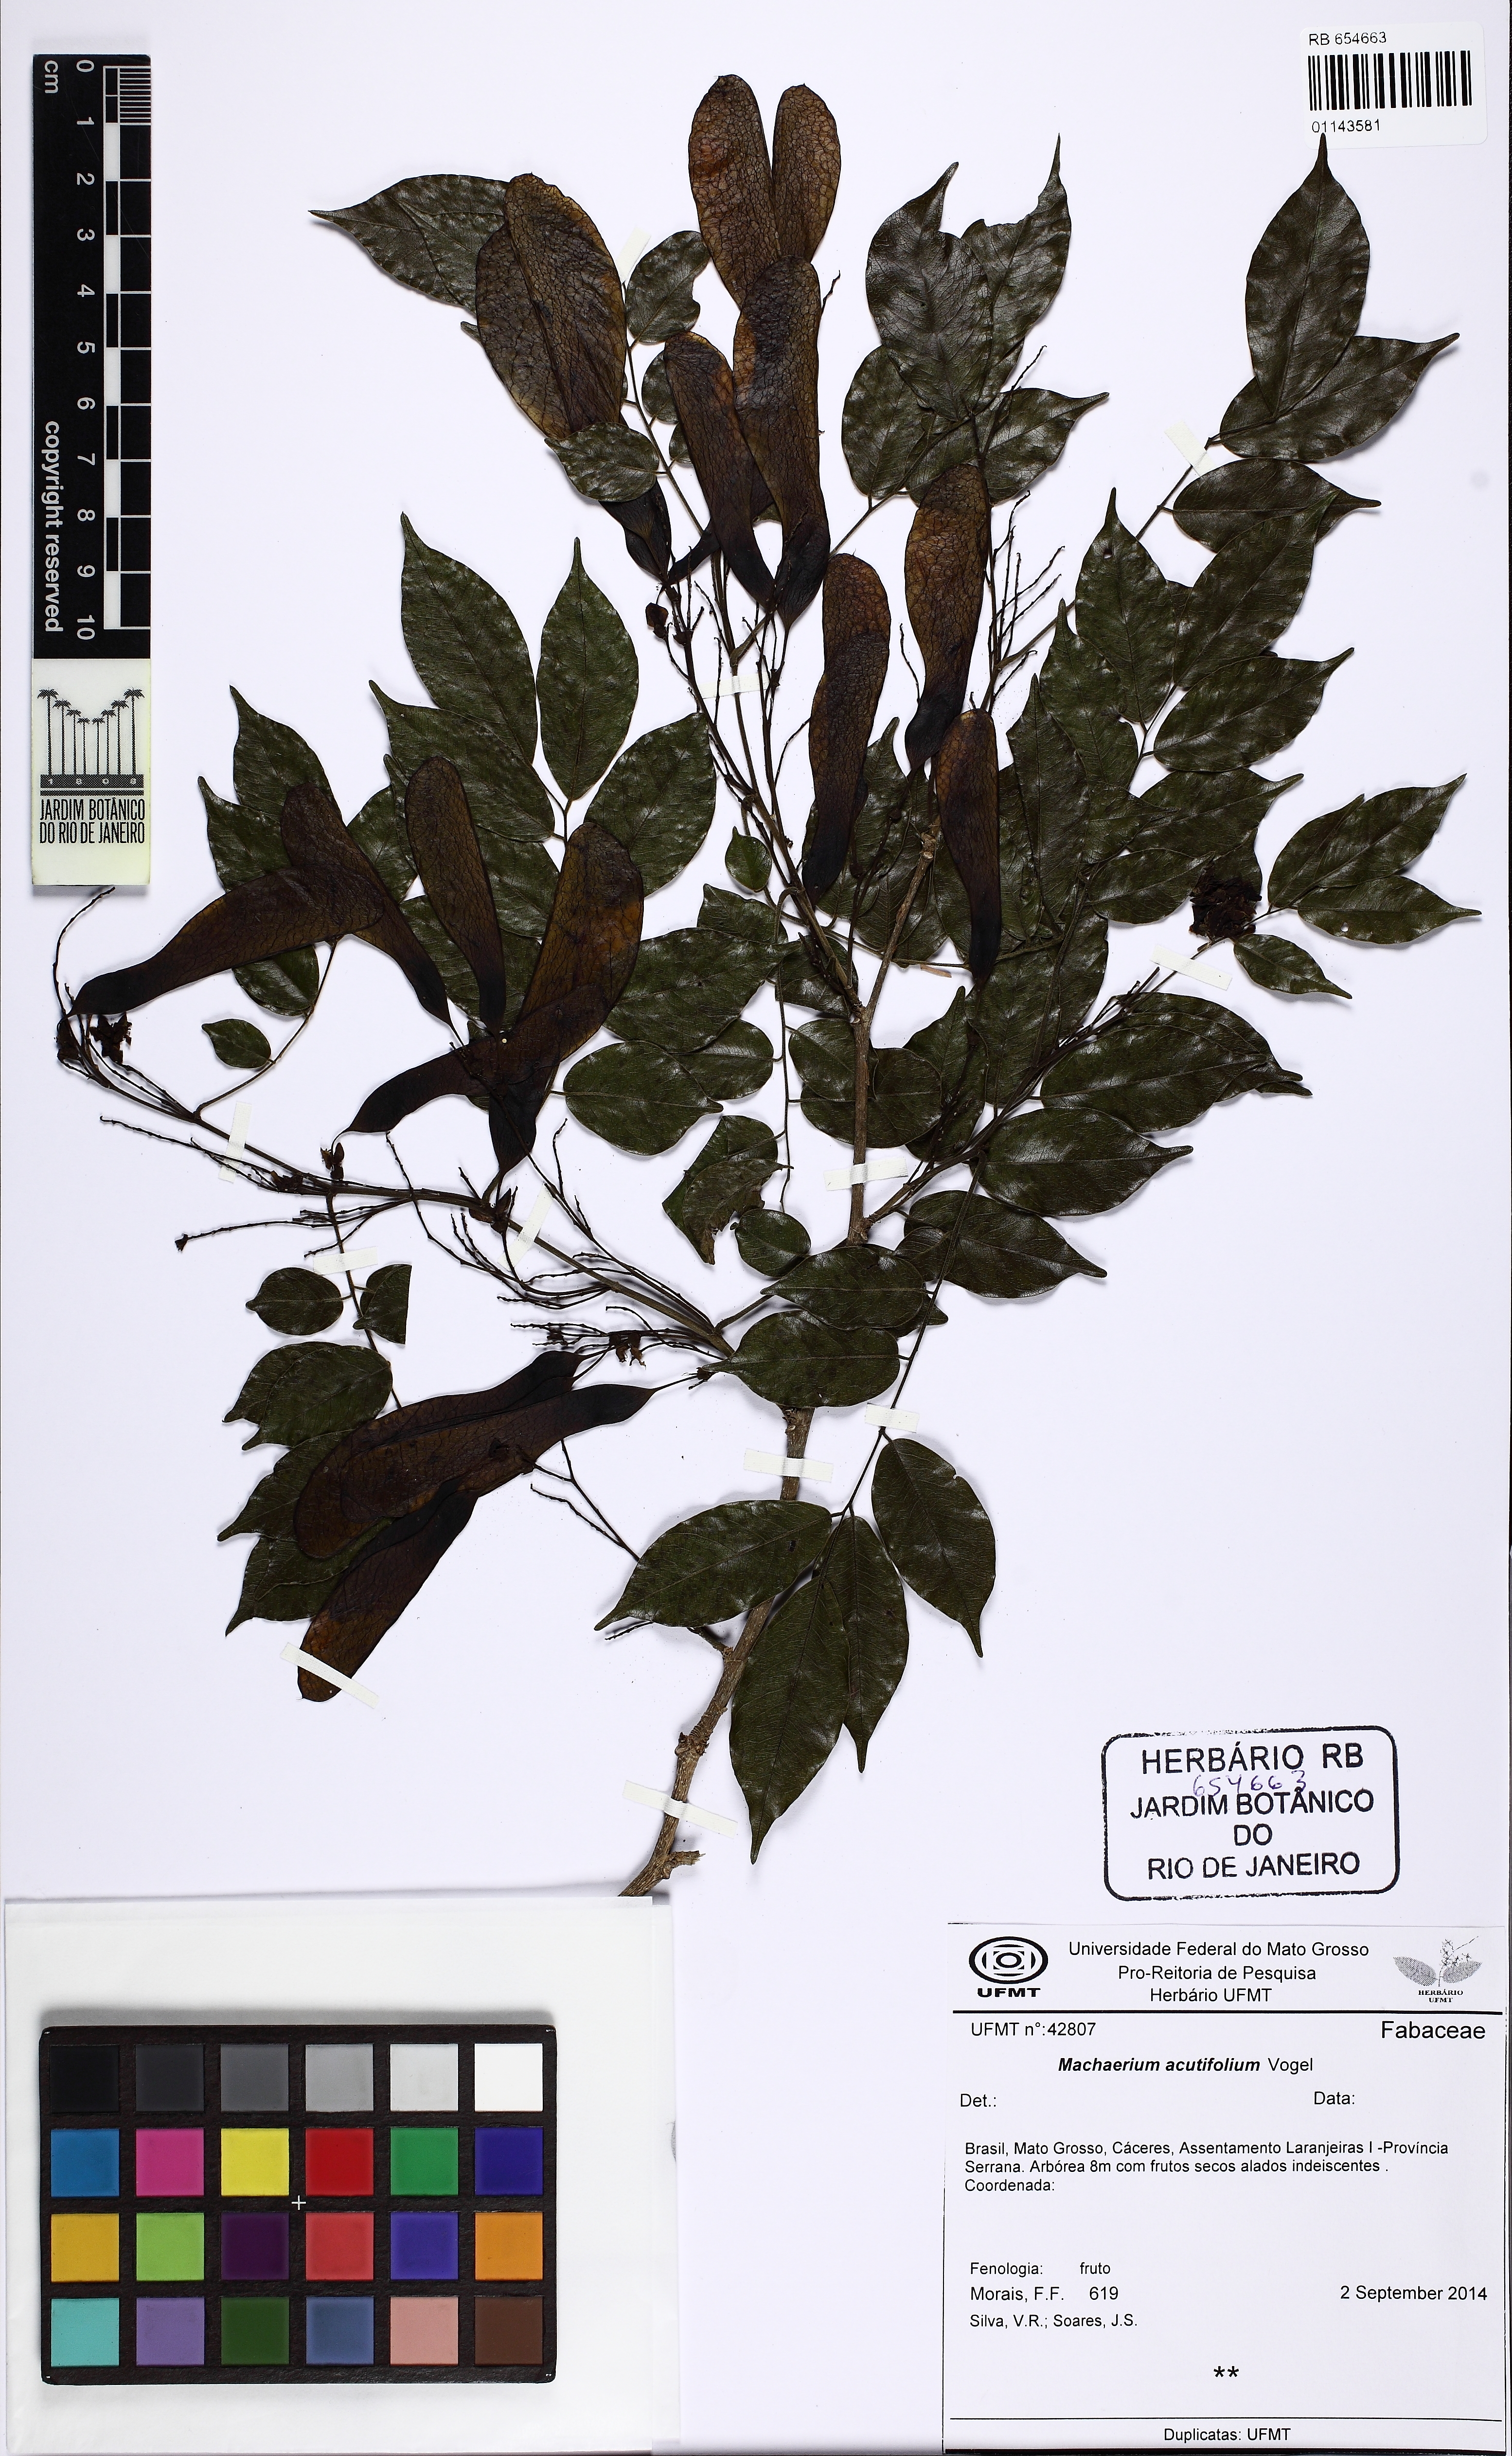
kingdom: Plantae
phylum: Tracheophyta
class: Magnoliopsida
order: Fabales
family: Fabaceae
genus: Machaerium
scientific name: Machaerium hirtum
